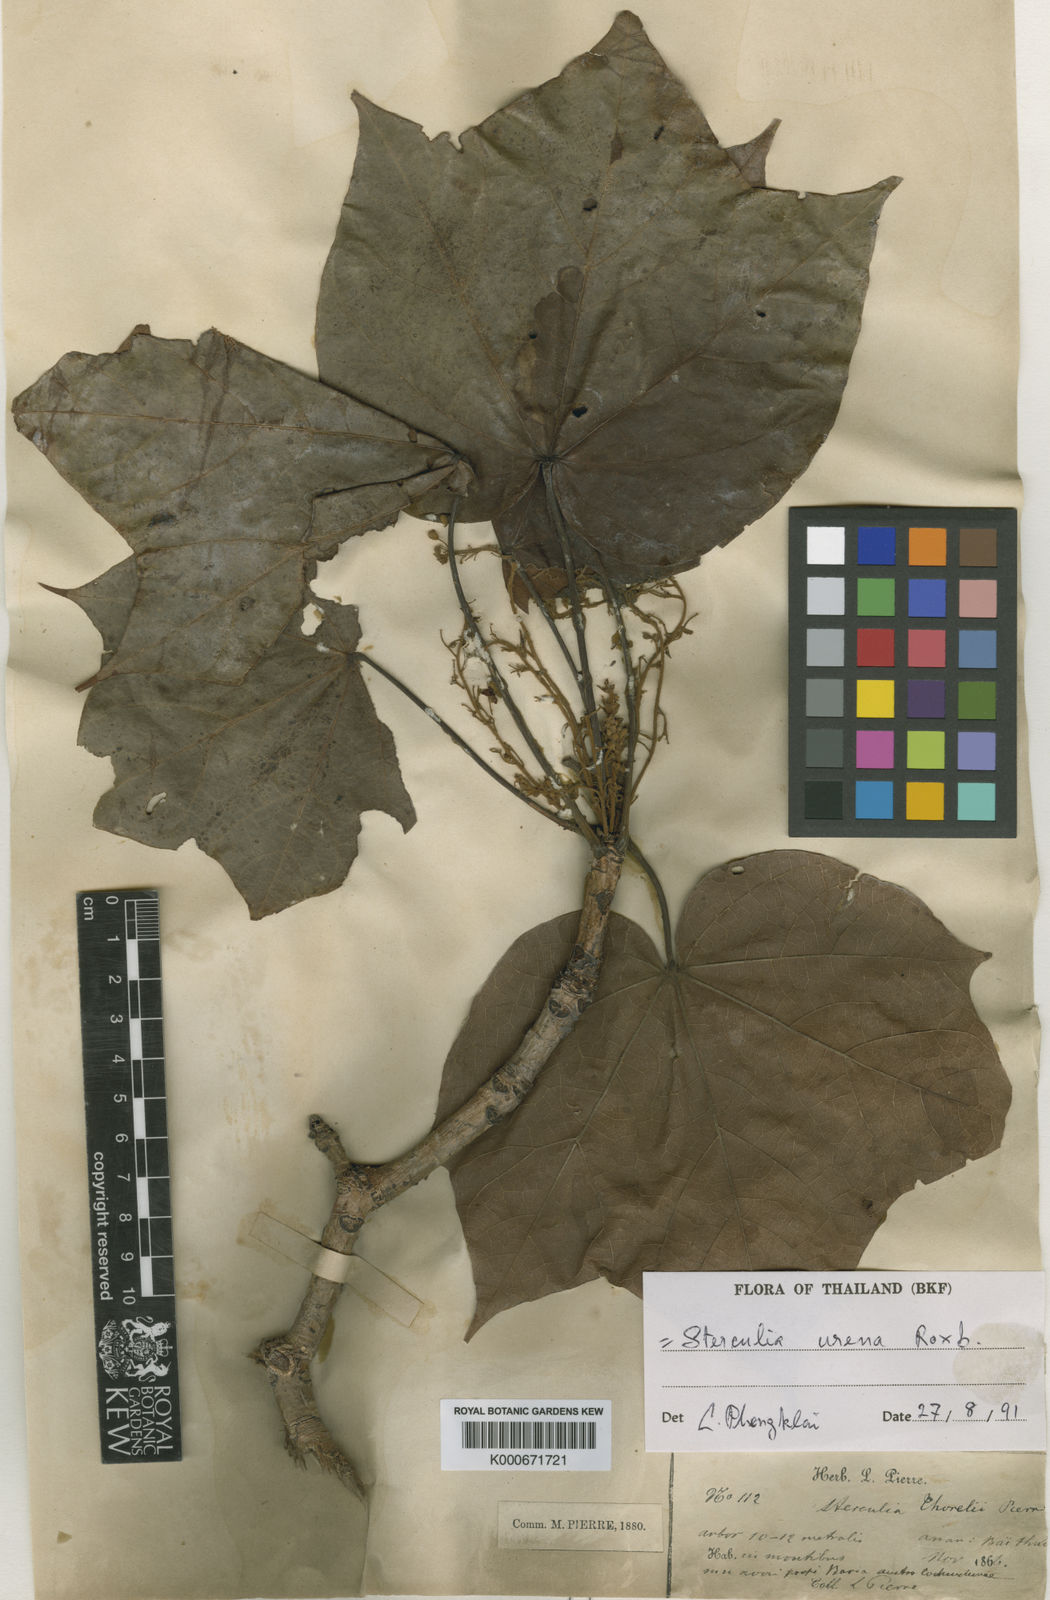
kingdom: Plantae
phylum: Tracheophyta
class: Magnoliopsida
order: Malvales
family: Malvaceae
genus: Sterculia
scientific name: Sterculia urens
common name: Indian-tragacanth
